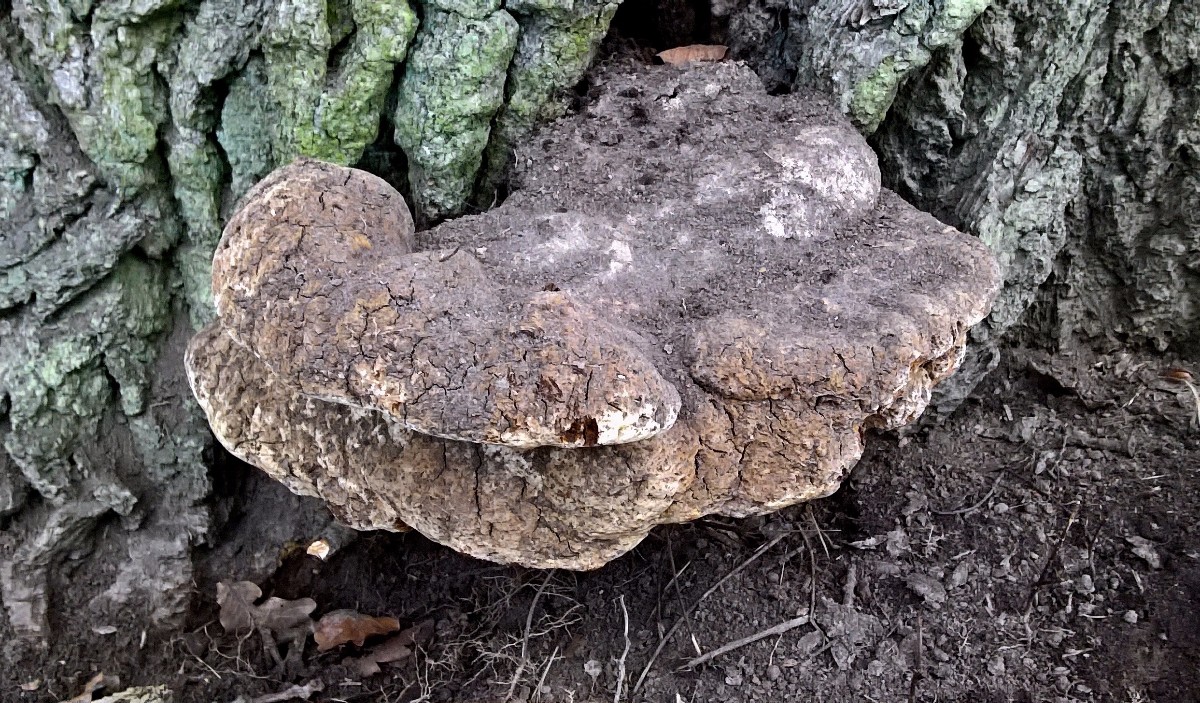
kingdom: Fungi
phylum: Basidiomycota
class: Agaricomycetes
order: Hymenochaetales
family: Hymenochaetaceae
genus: Pseudoinonotus
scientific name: Pseudoinonotus dryadeus
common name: ege-spejlporesvamp
